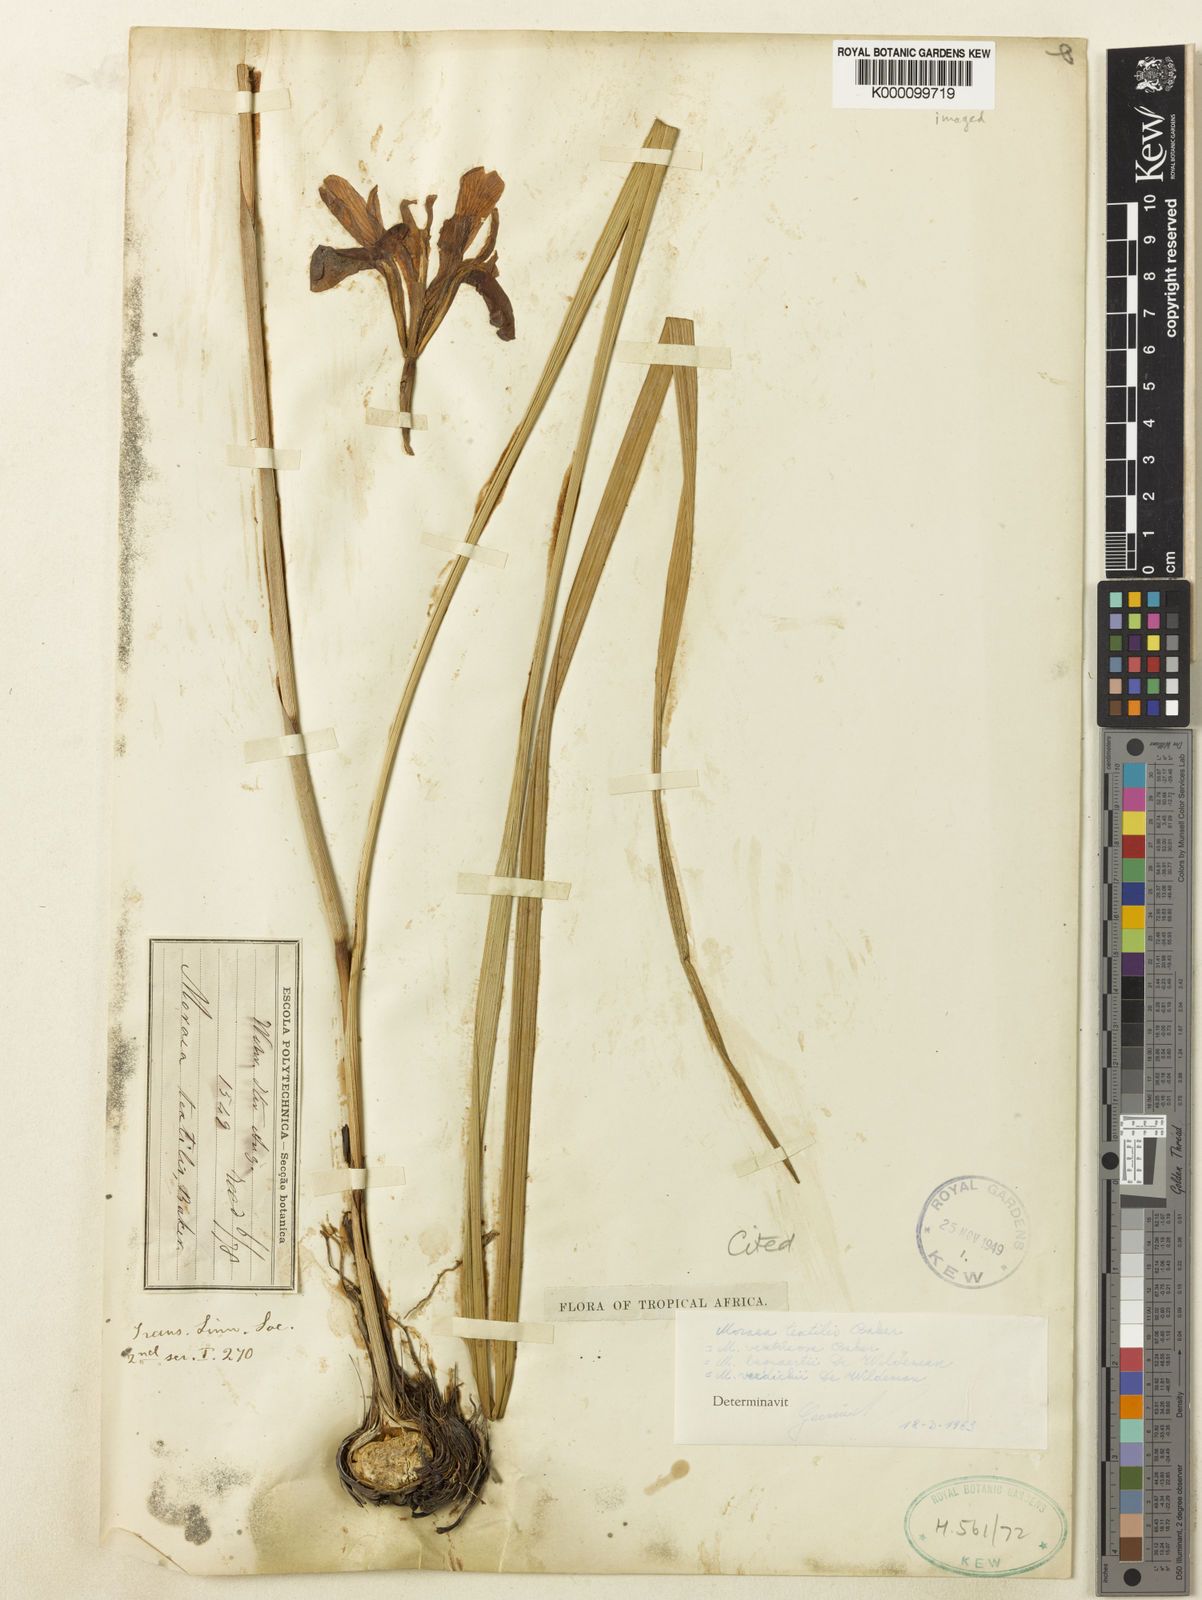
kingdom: Plantae
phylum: Tracheophyta
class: Liliopsida
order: Asparagales
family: Iridaceae
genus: Moraea
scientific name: Moraea textilis
